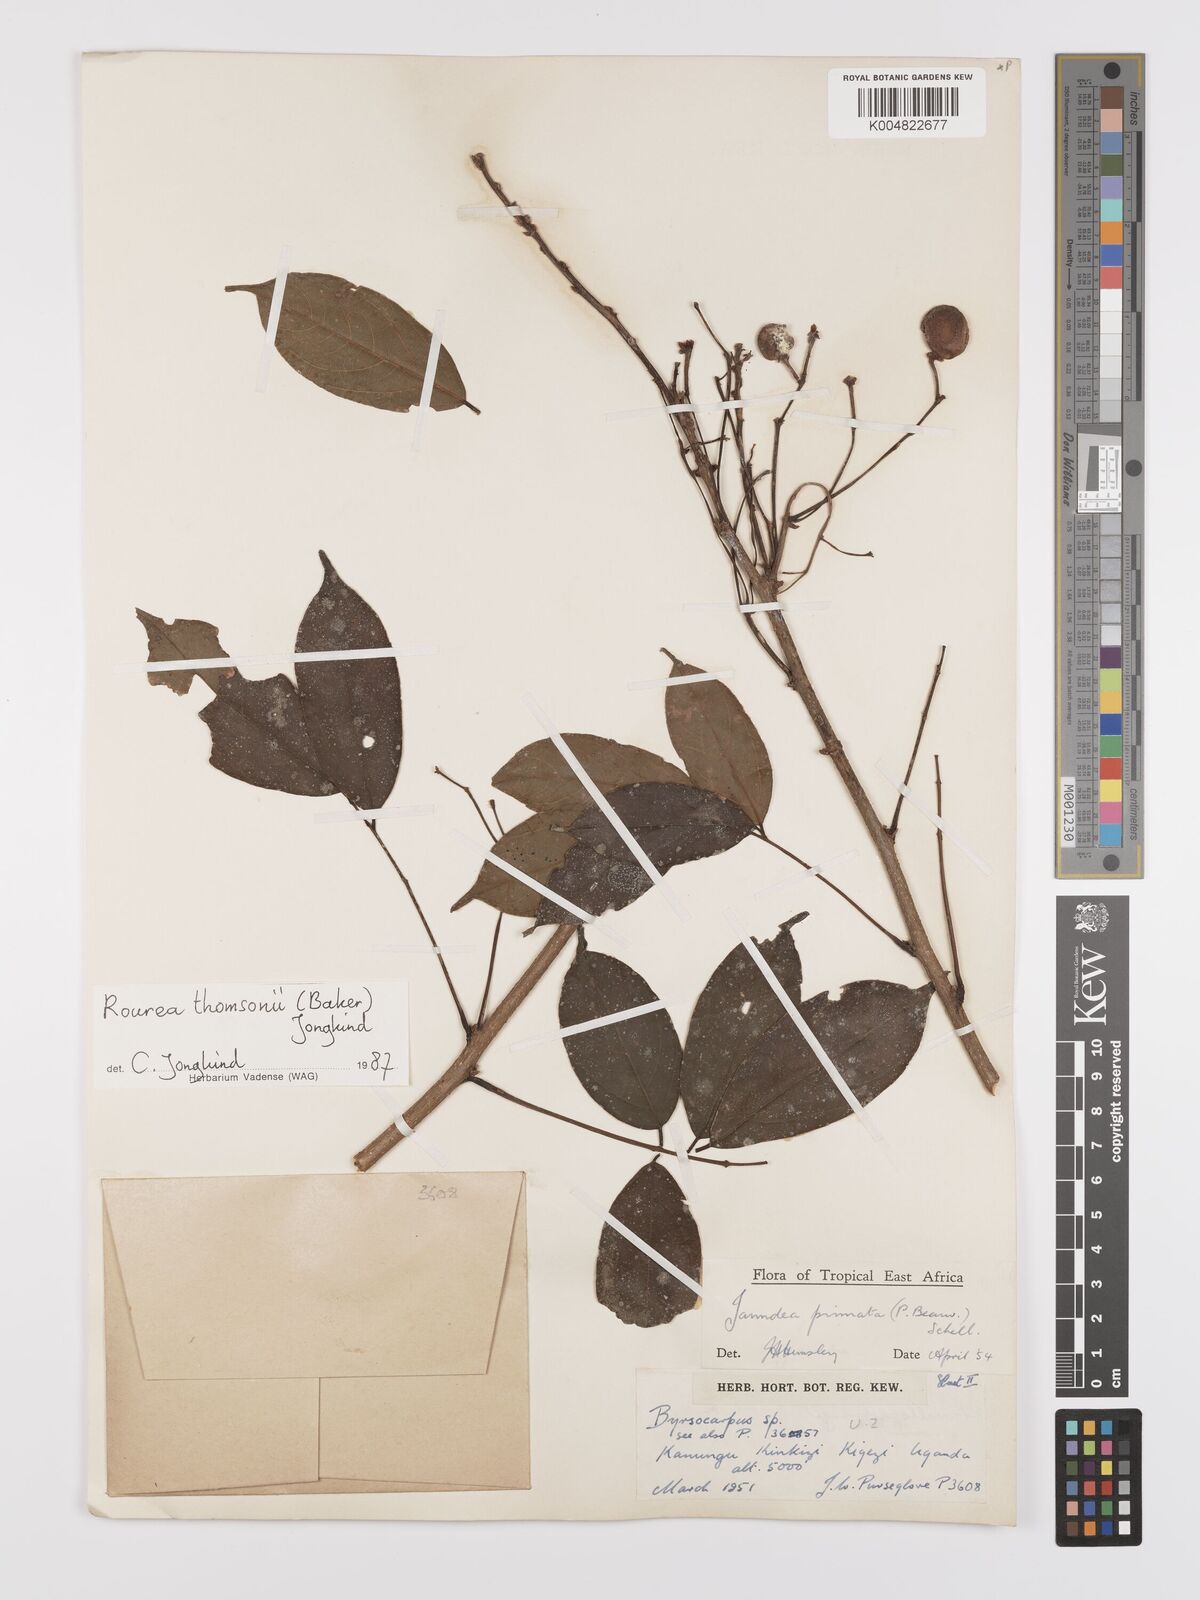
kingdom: Plantae
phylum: Tracheophyta
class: Magnoliopsida
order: Oxalidales
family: Connaraceae
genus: Rourea
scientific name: Rourea pinnata
